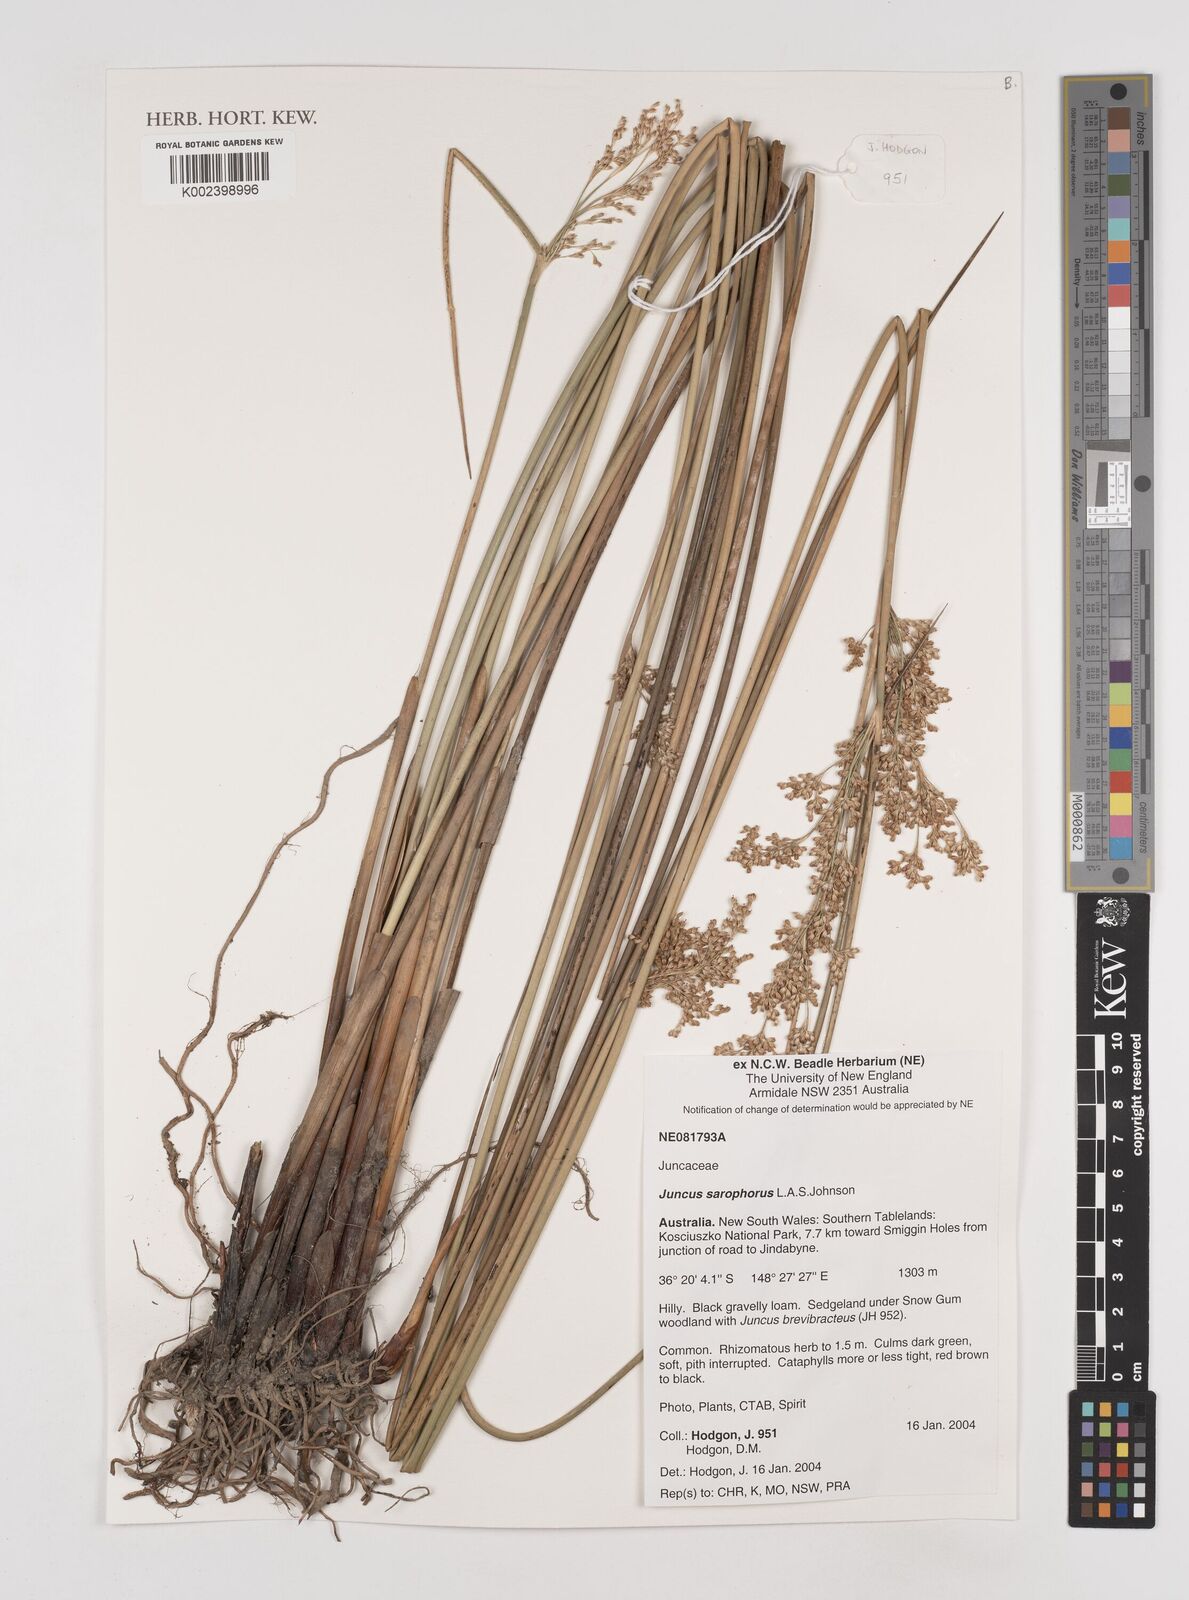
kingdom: Plantae
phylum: Tracheophyta
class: Liliopsida
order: Poales
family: Juncaceae
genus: Juncus
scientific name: Juncus sarophorus
